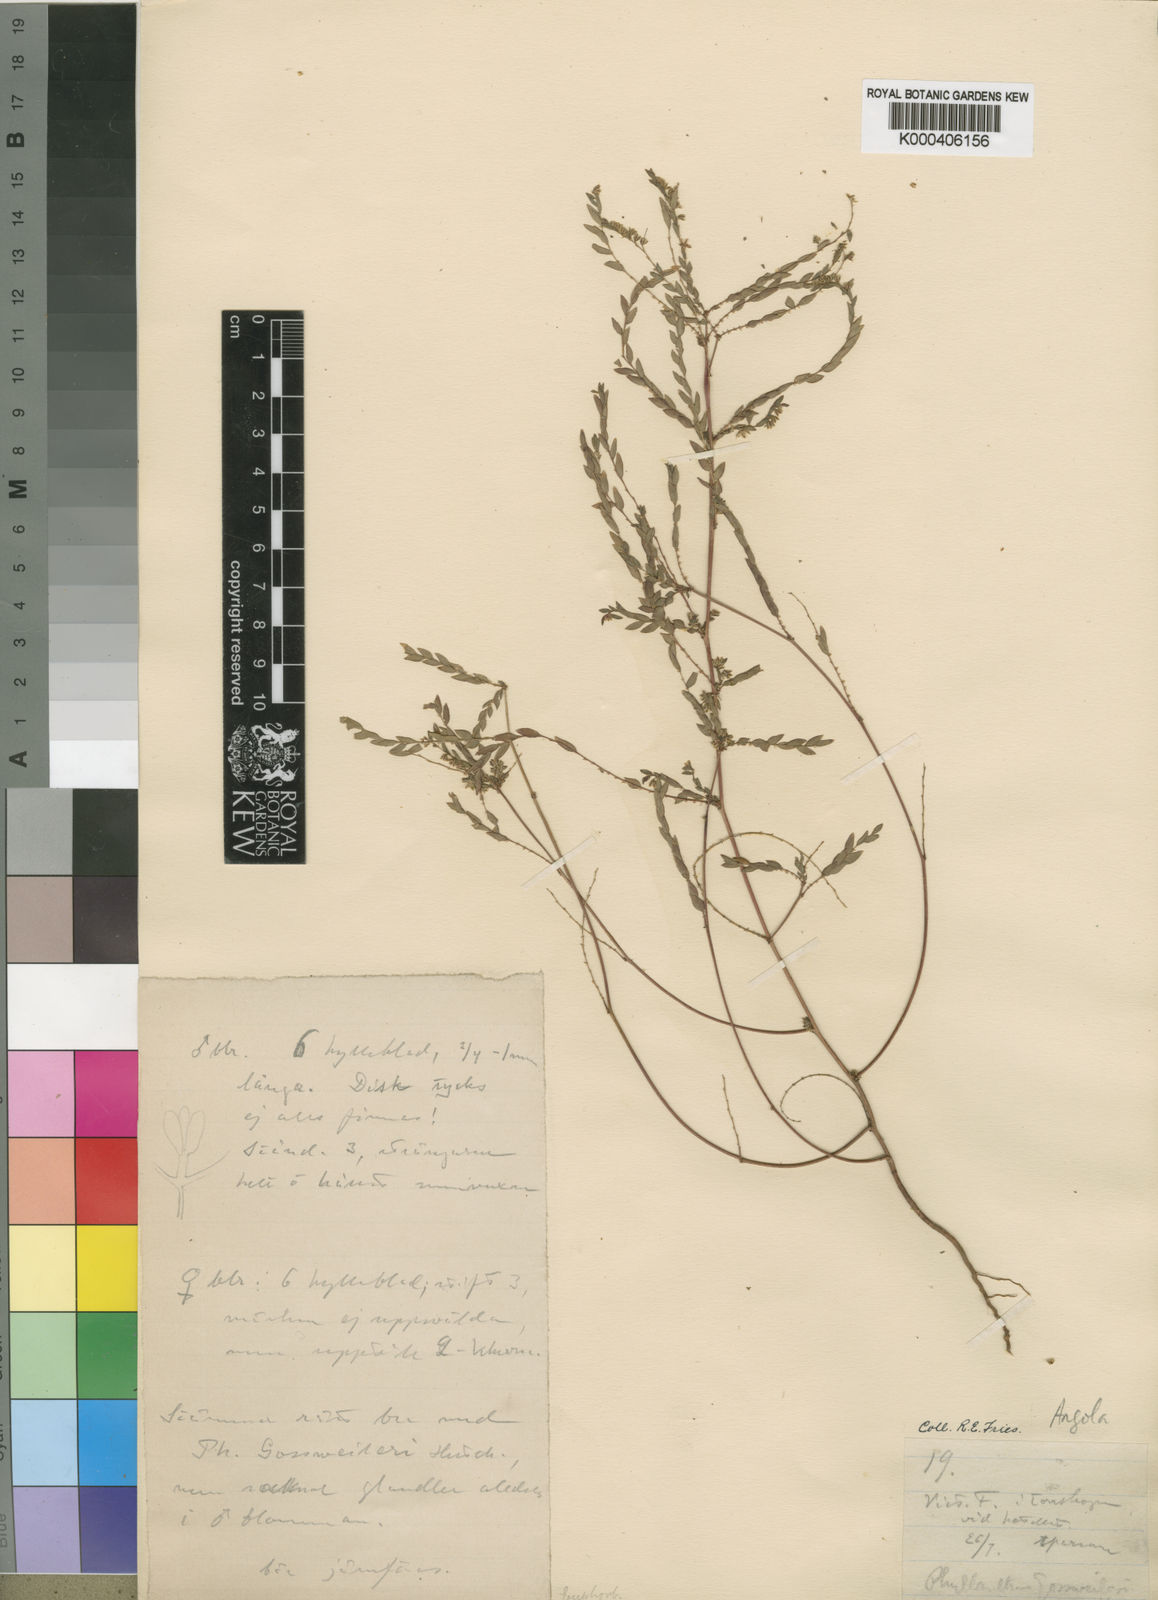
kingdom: Plantae
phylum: Tracheophyta
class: Magnoliopsida
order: Malpighiales
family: Phyllanthaceae
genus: Phyllanthus
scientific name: Phyllanthus gossweileri
